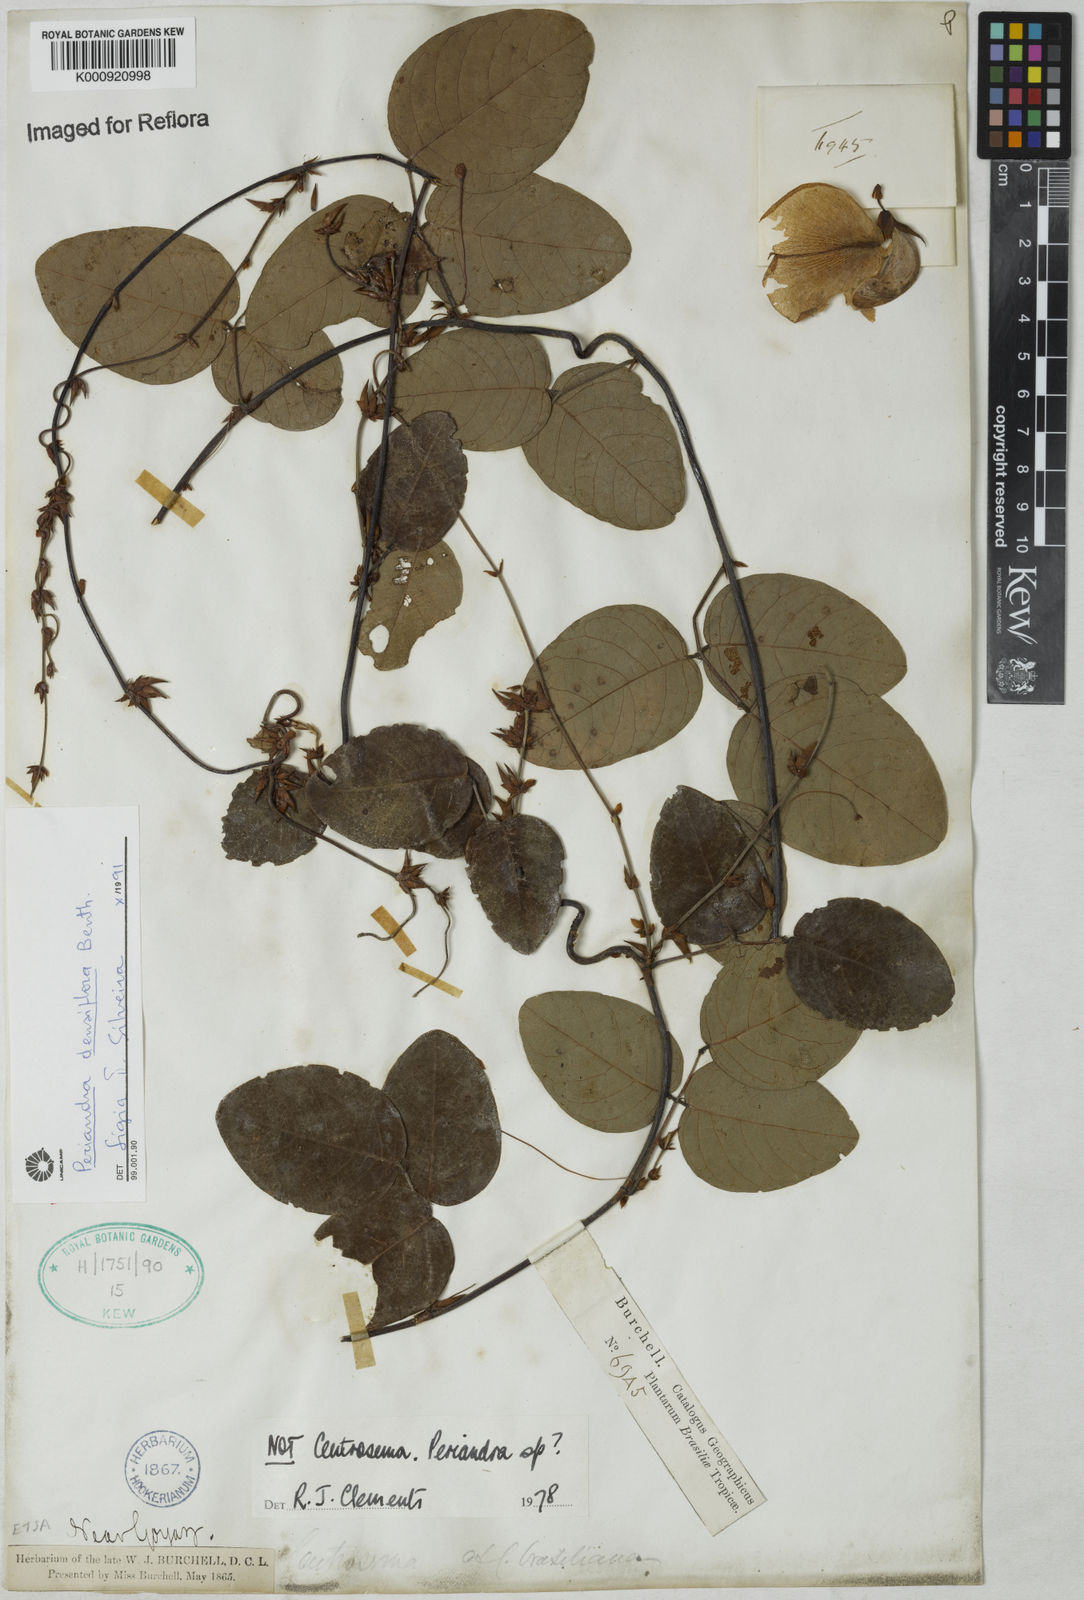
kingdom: Plantae
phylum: Tracheophyta
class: Magnoliopsida
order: Fabales
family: Fabaceae
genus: Periandra
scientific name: Periandra densiflora
